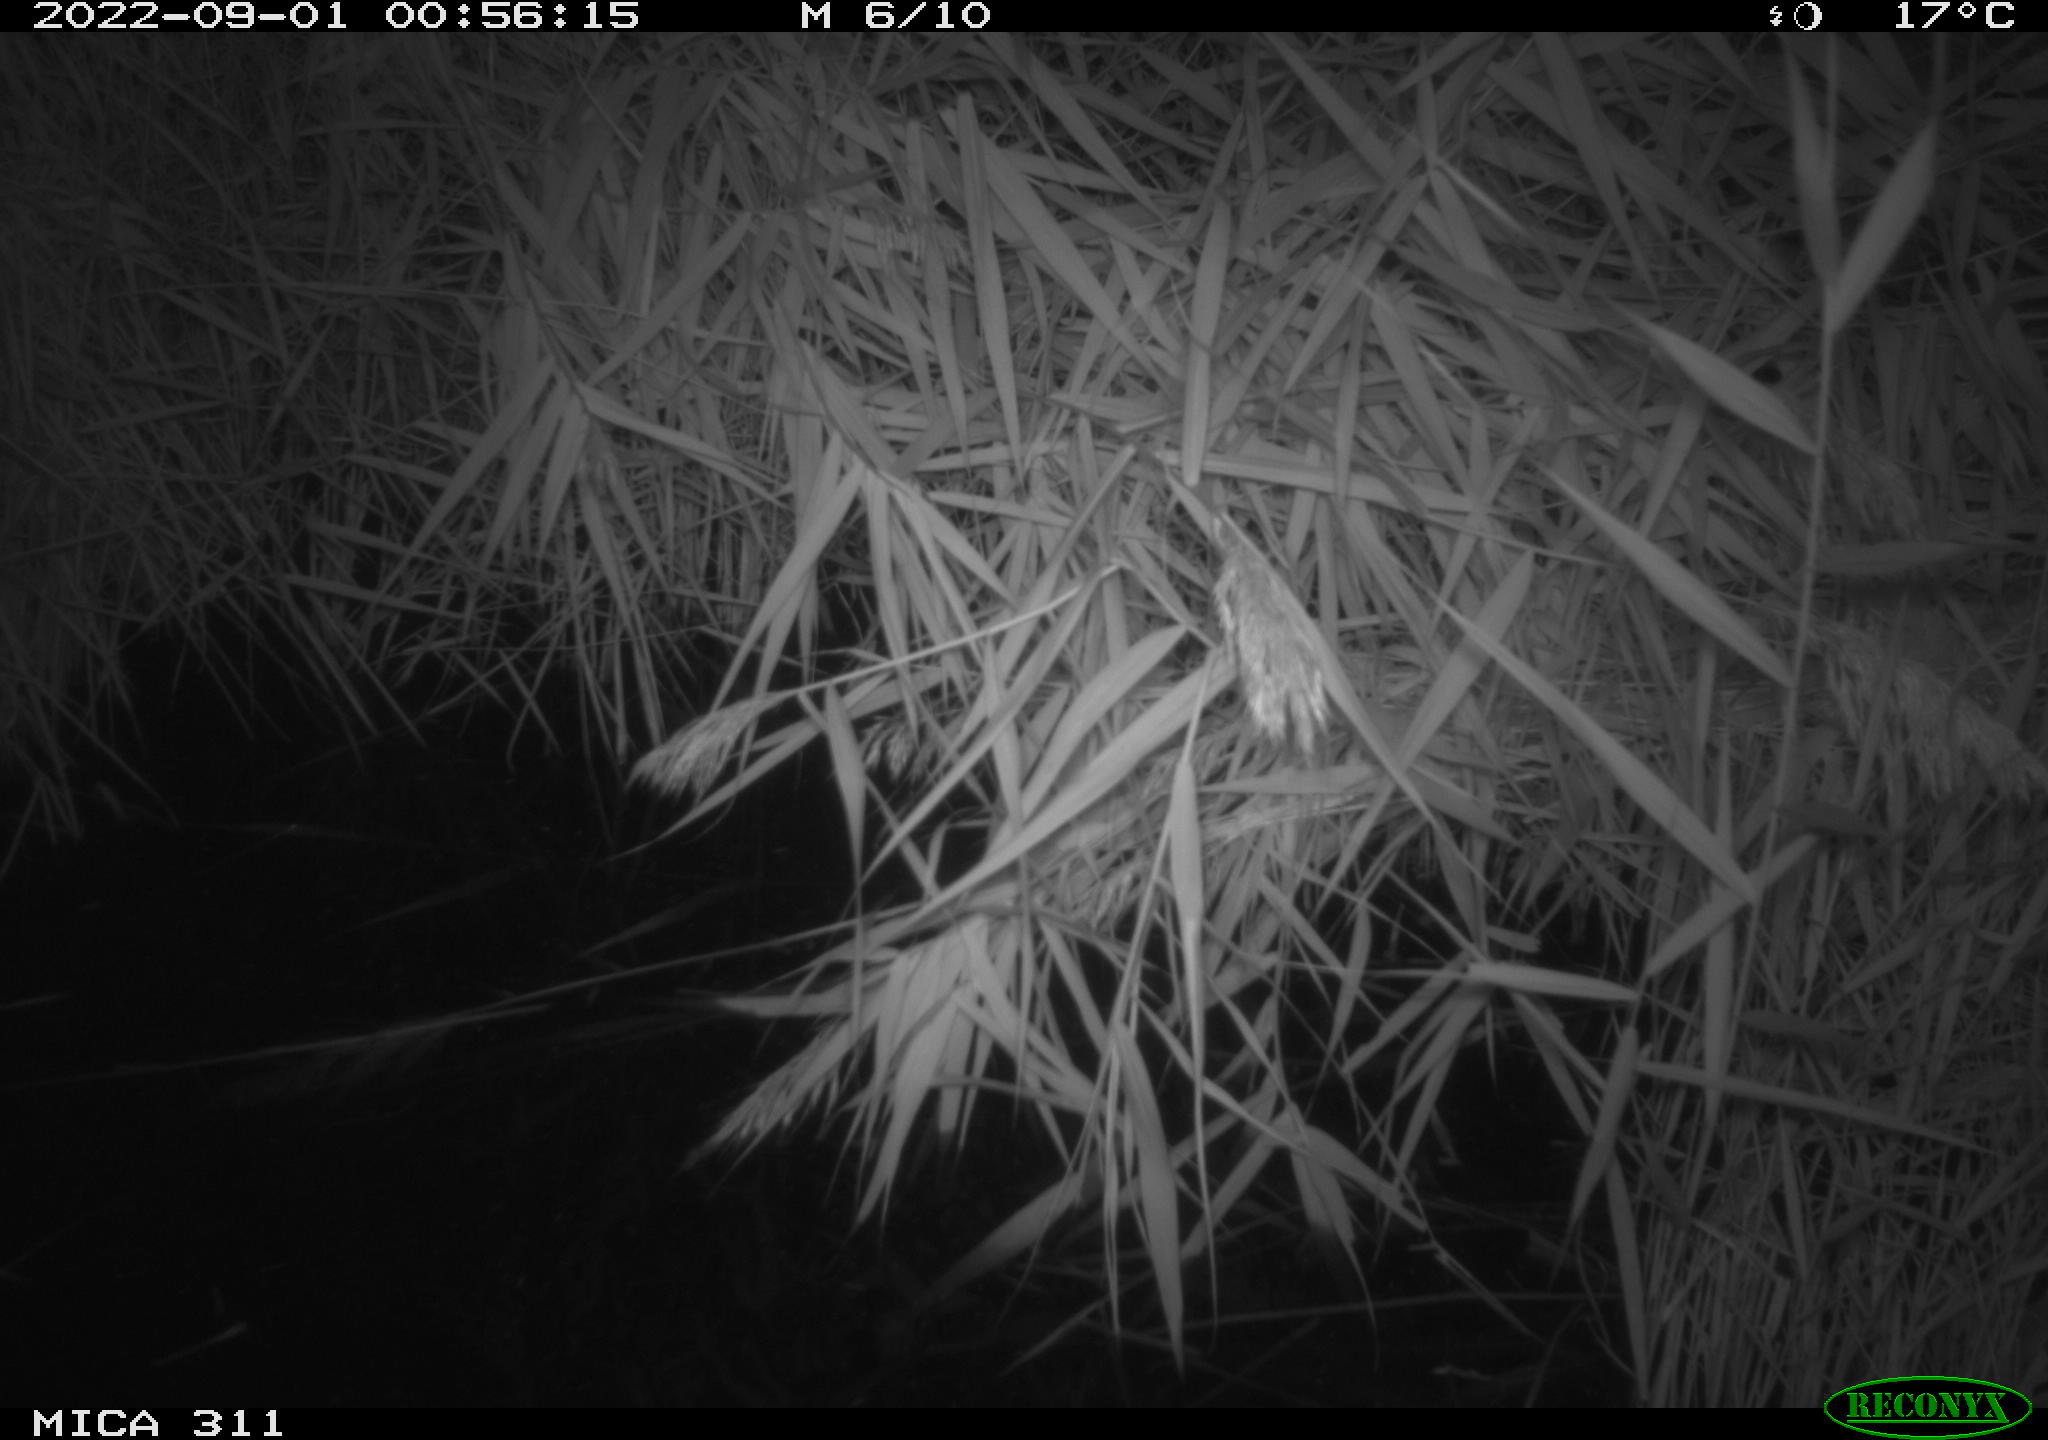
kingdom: Animalia
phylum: Chordata
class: Mammalia
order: Rodentia
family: Muridae
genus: Rattus
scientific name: Rattus norvegicus
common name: Brown rat
